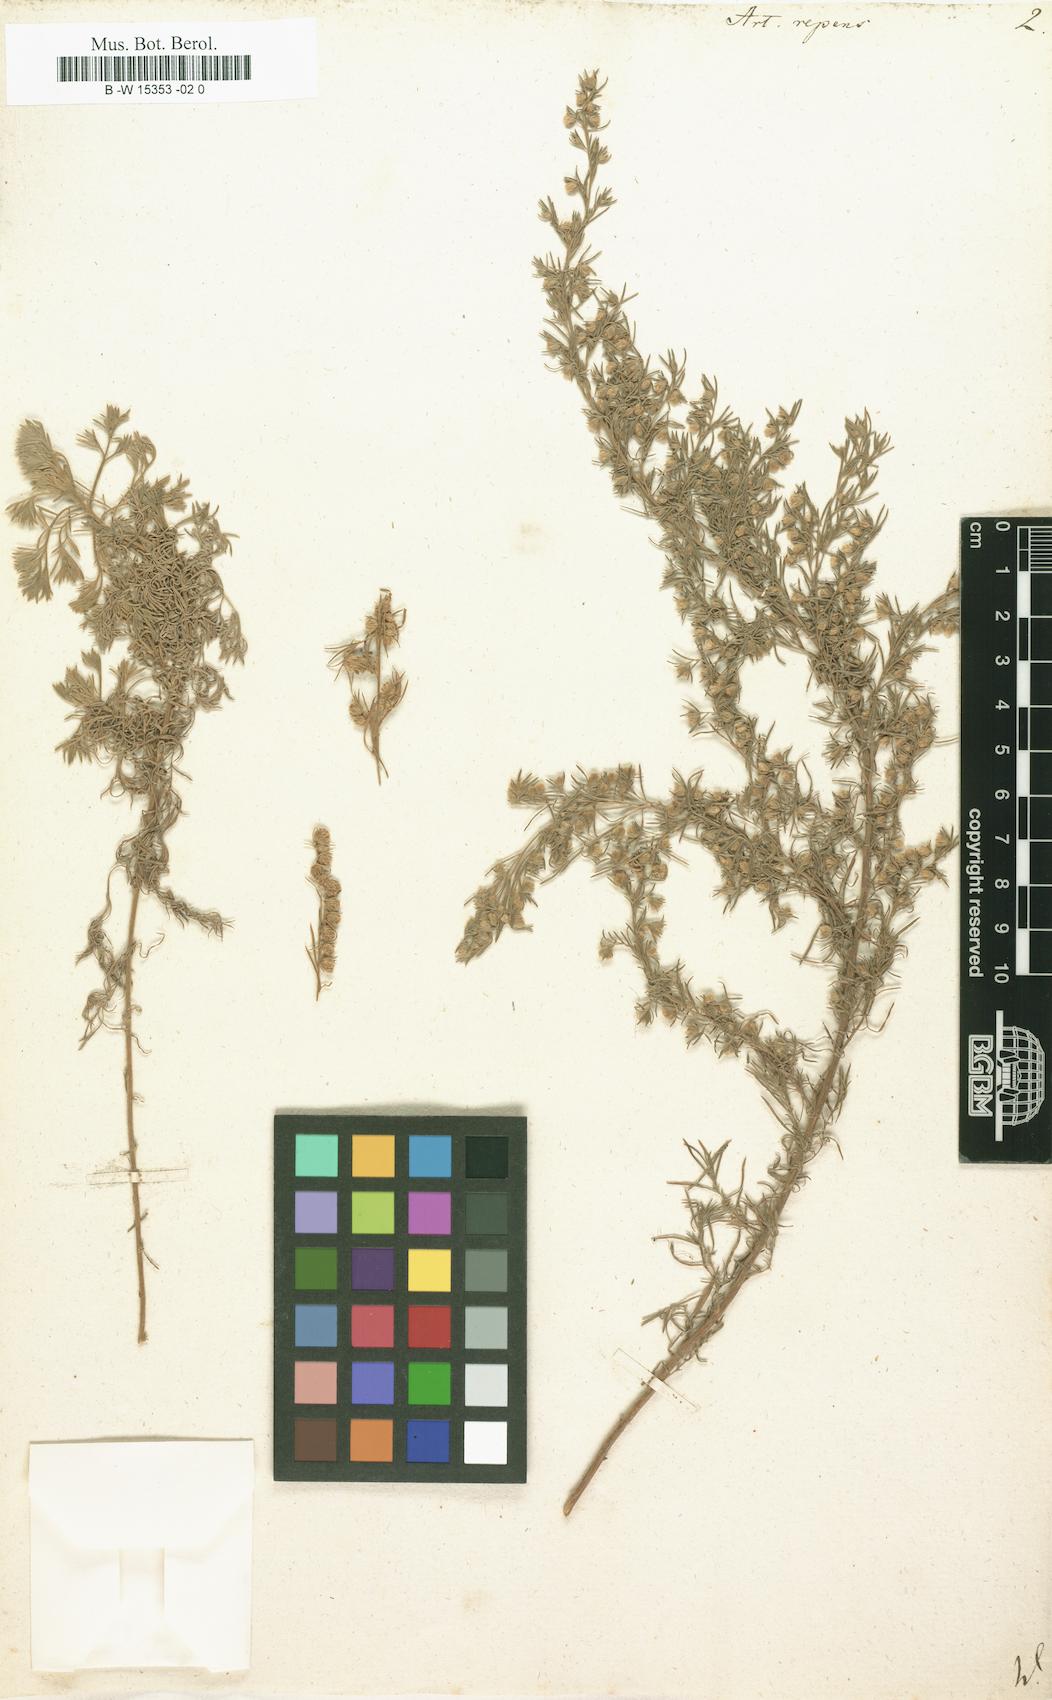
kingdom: Plantae
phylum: Tracheophyta
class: Magnoliopsida
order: Asterales
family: Asteraceae
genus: Artemisia
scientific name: Artemisia repens
